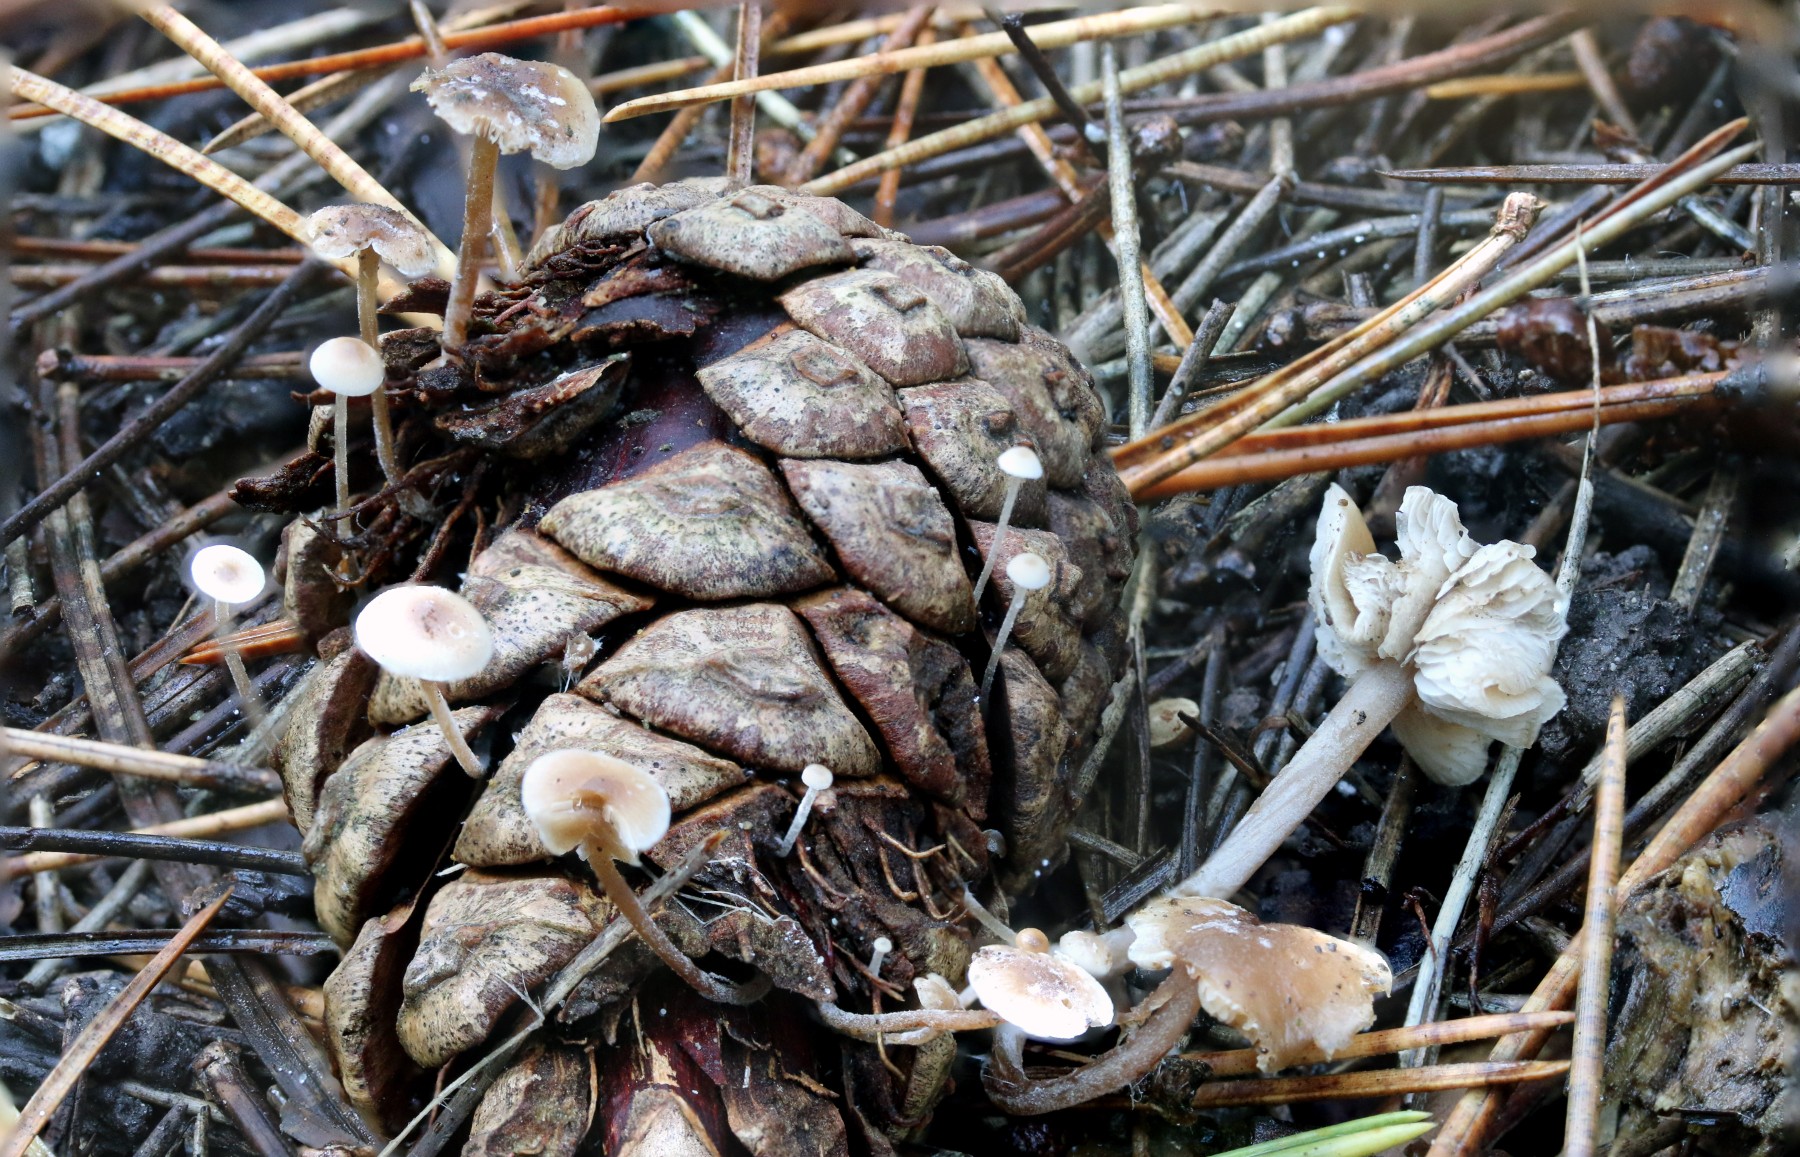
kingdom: Fungi
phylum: Basidiomycota
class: Agaricomycetes
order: Agaricales
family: Marasmiaceae
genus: Baeospora
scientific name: Baeospora myosura
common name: koglebruskhat
